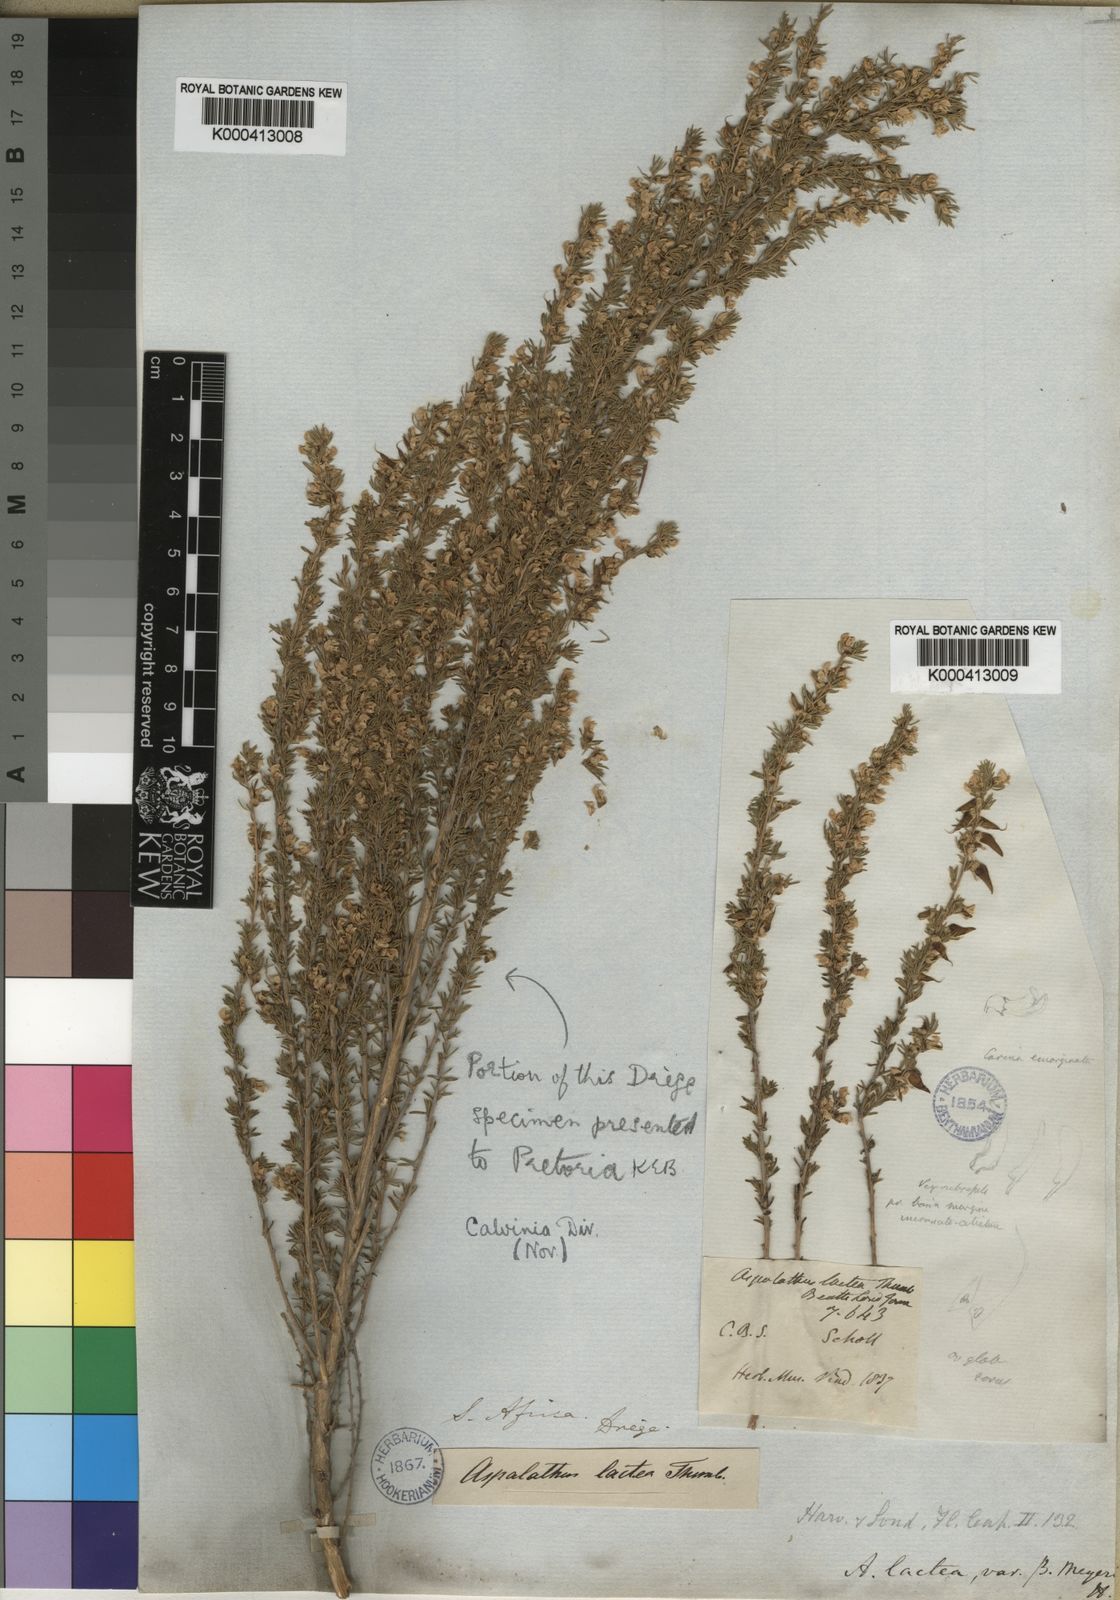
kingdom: Plantae
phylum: Tracheophyta
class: Magnoliopsida
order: Fabales
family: Fabaceae
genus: Aspalathus
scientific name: Aspalathus obliqua
